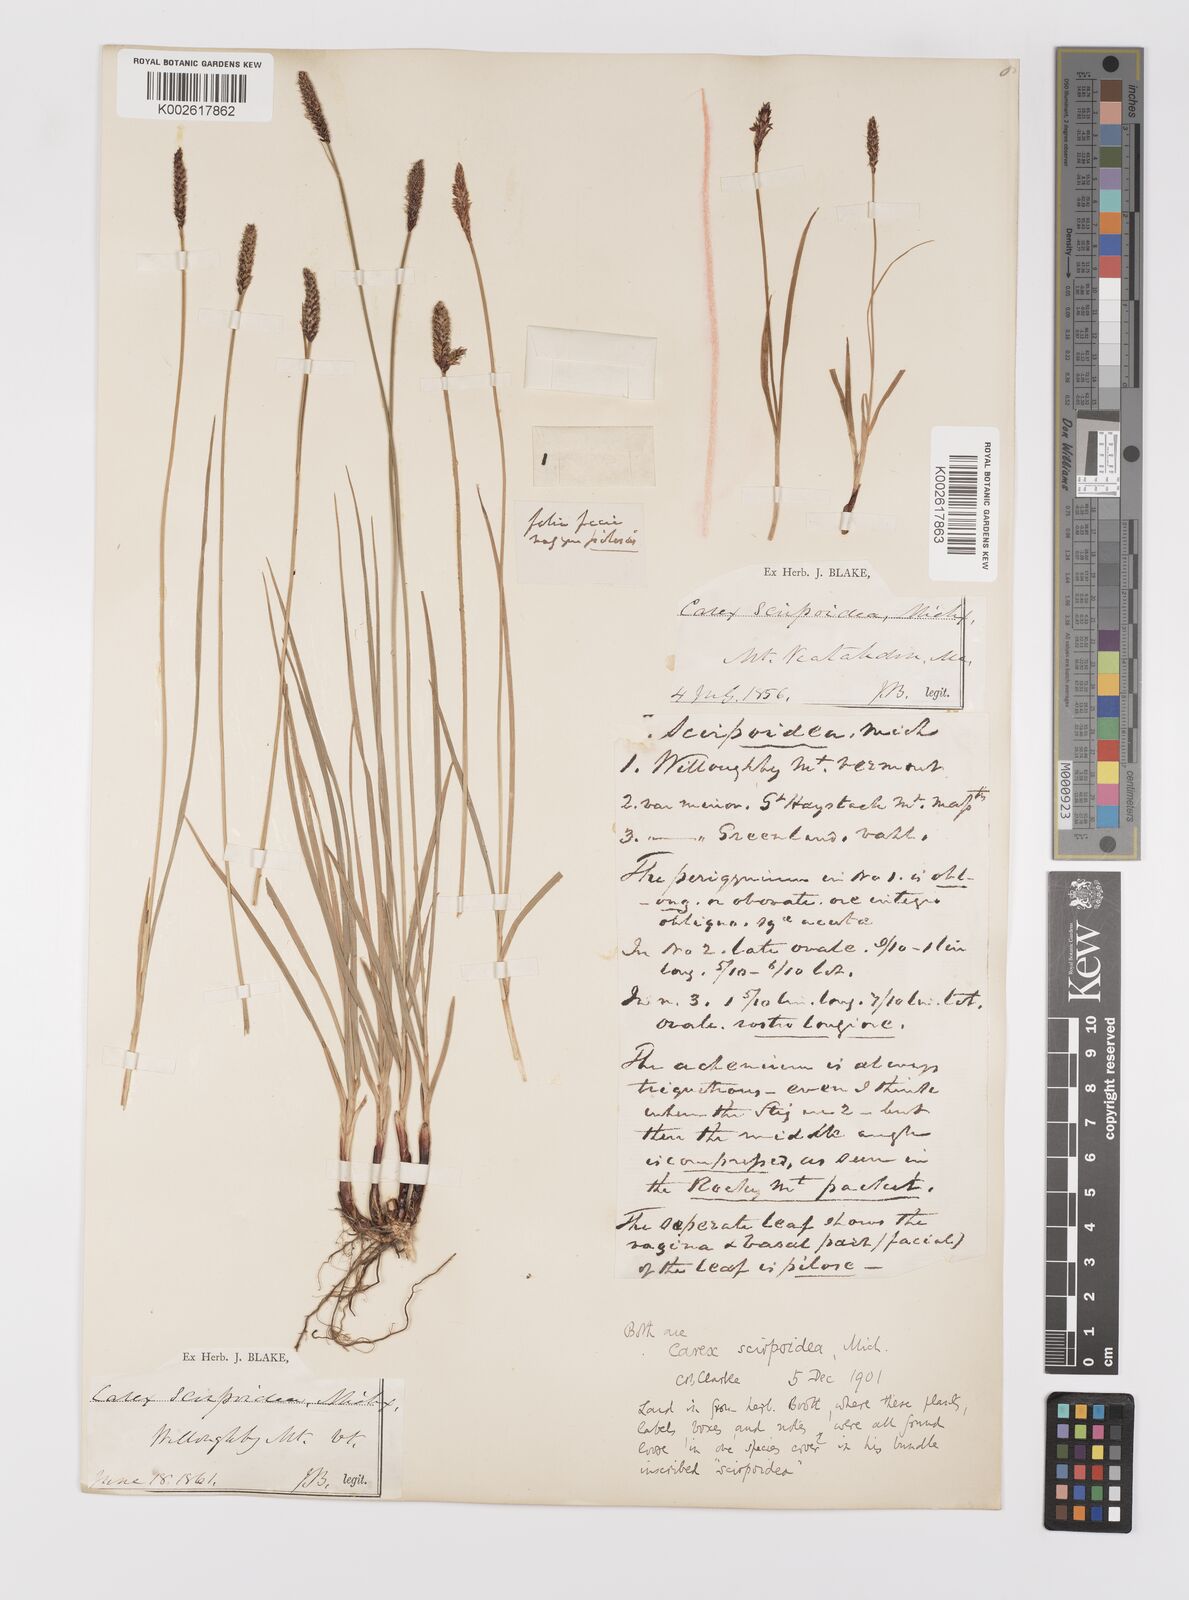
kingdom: Plantae
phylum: Tracheophyta
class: Liliopsida
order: Poales
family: Cyperaceae
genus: Carex
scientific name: Carex scirpoidea
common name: Canada single-spike sedge
